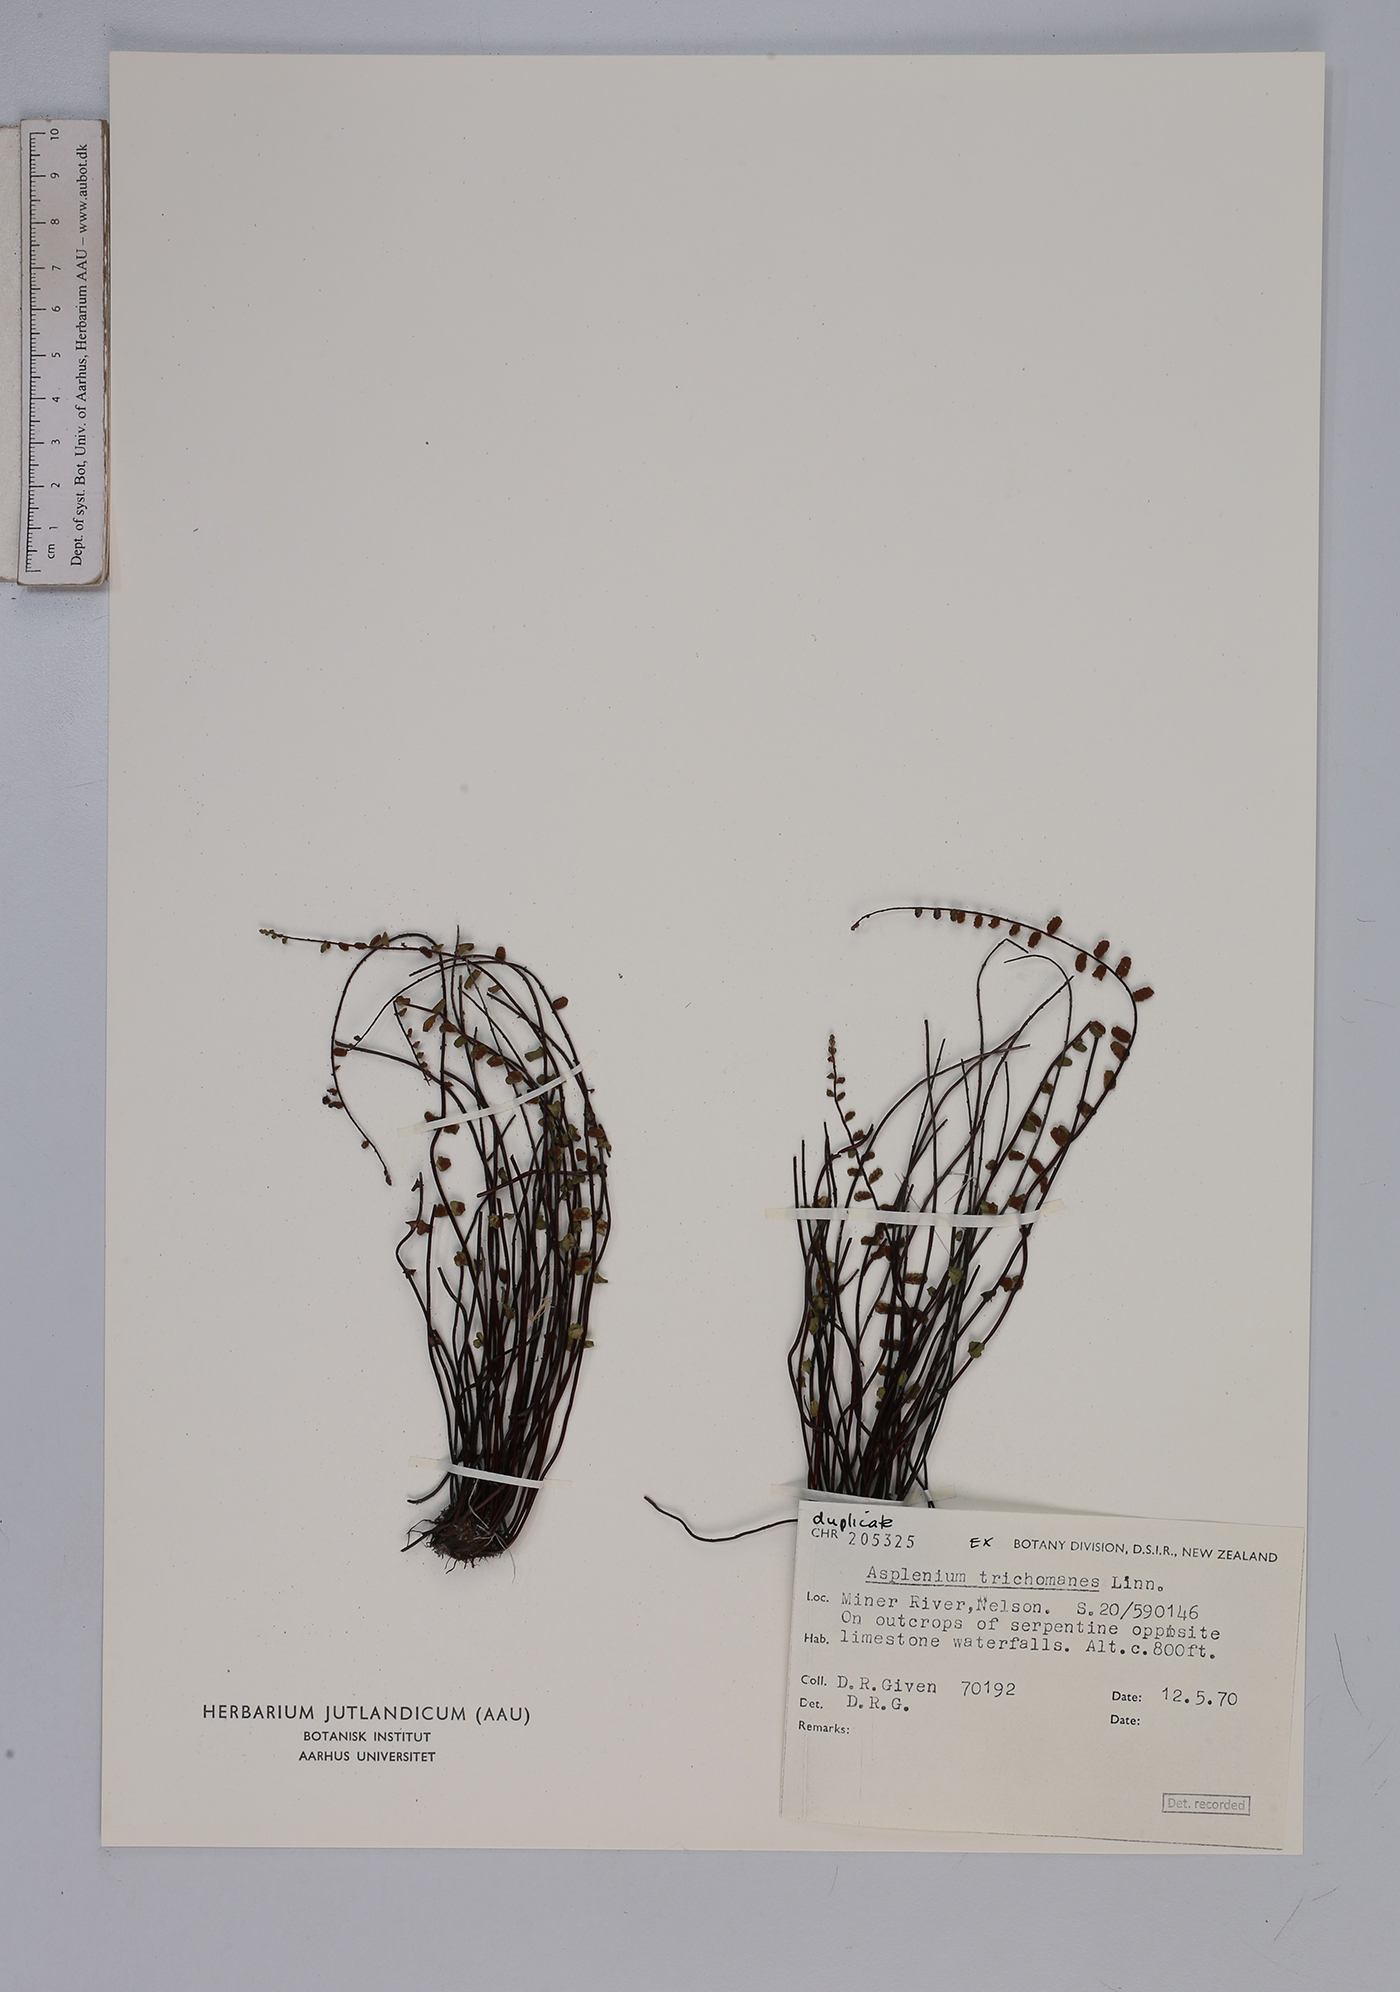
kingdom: Plantae
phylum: Tracheophyta
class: Polypodiopsida
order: Polypodiales
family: Aspleniaceae
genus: Asplenium
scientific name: Asplenium trichomanes
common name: Maidenhair spleenwort
